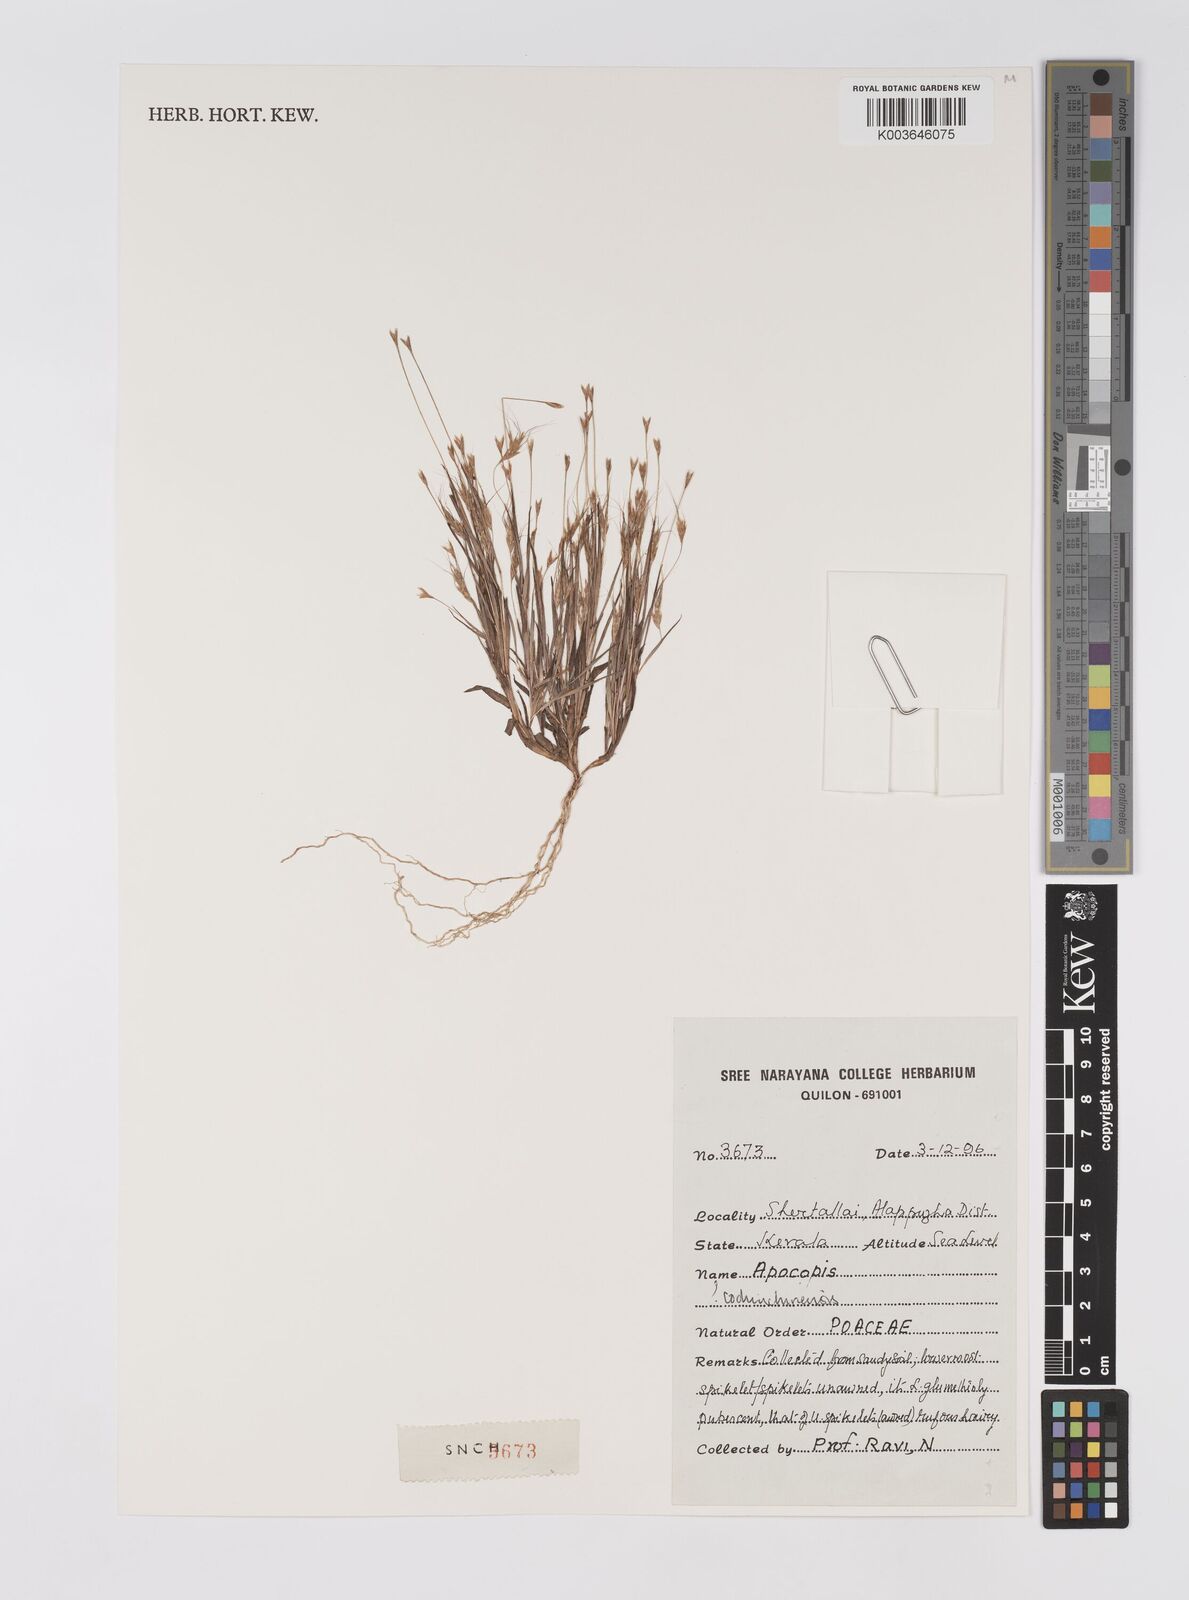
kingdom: Plantae
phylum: Tracheophyta
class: Liliopsida
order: Poales
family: Poaceae
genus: Apocopis
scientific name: Apocopis cochinchinensis
